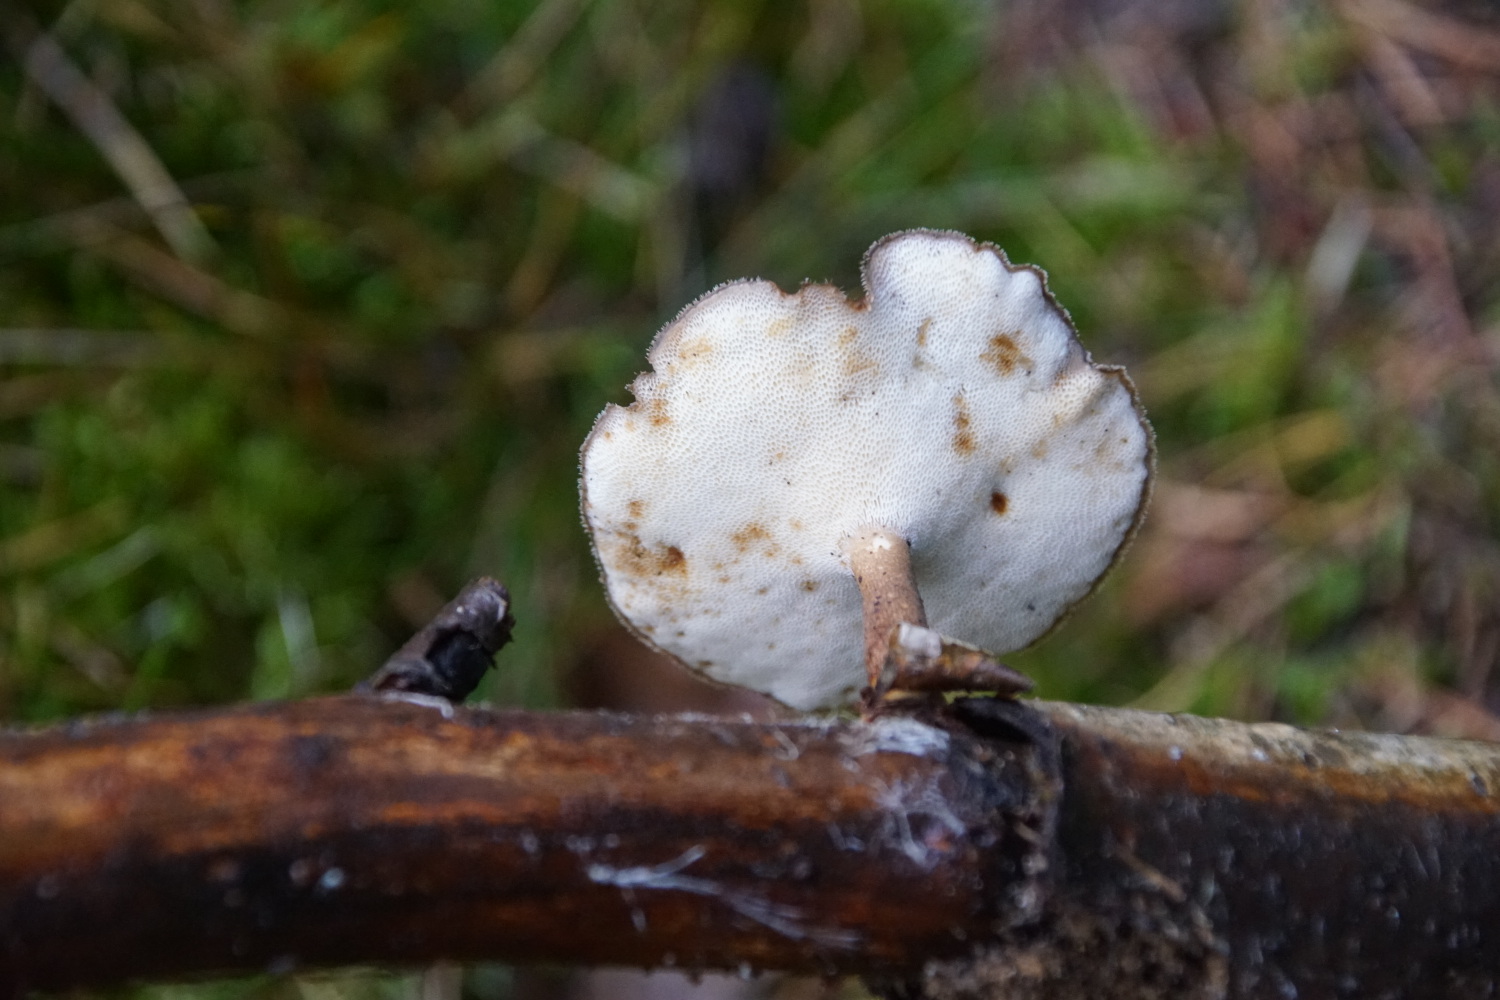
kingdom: Fungi
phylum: Basidiomycota
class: Agaricomycetes
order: Polyporales
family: Polyporaceae
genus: Lentinus
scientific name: Lentinus brumalis
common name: vinter-stilkporesvamp
